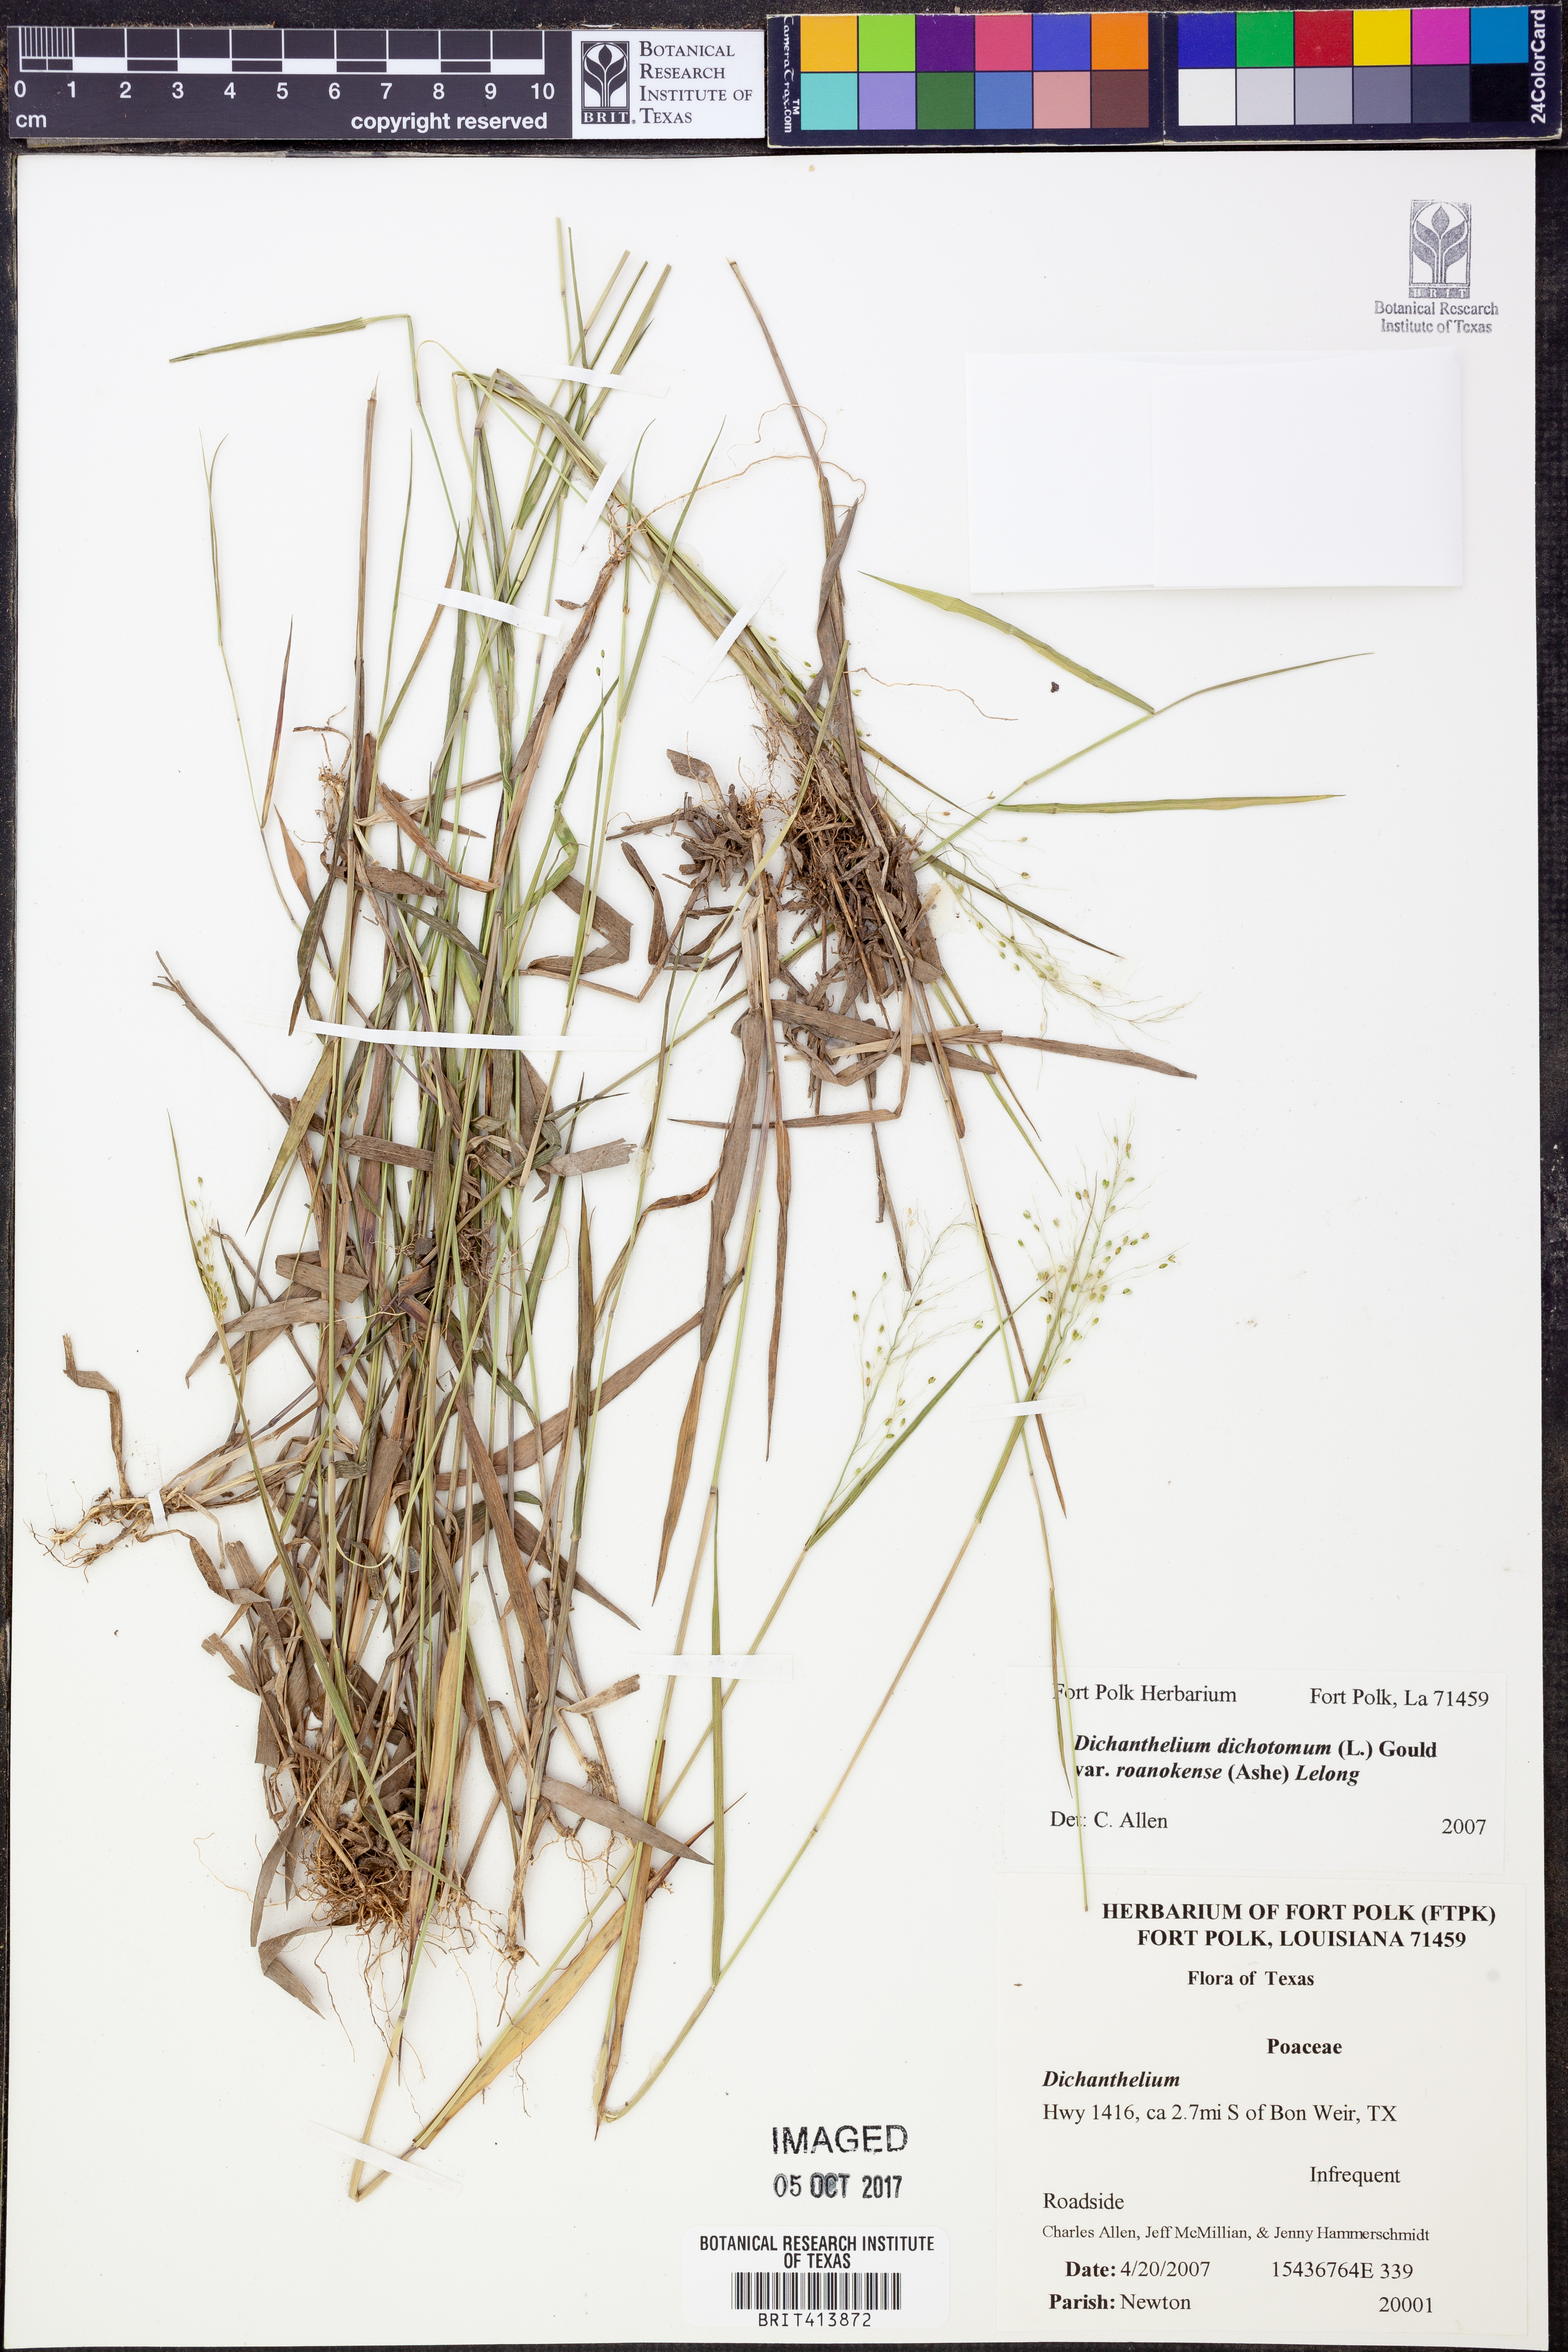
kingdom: Plantae
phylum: Tracheophyta
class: Liliopsida
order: Poales
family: Poaceae
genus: Dichanthelium
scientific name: Dichanthelium roanokense
